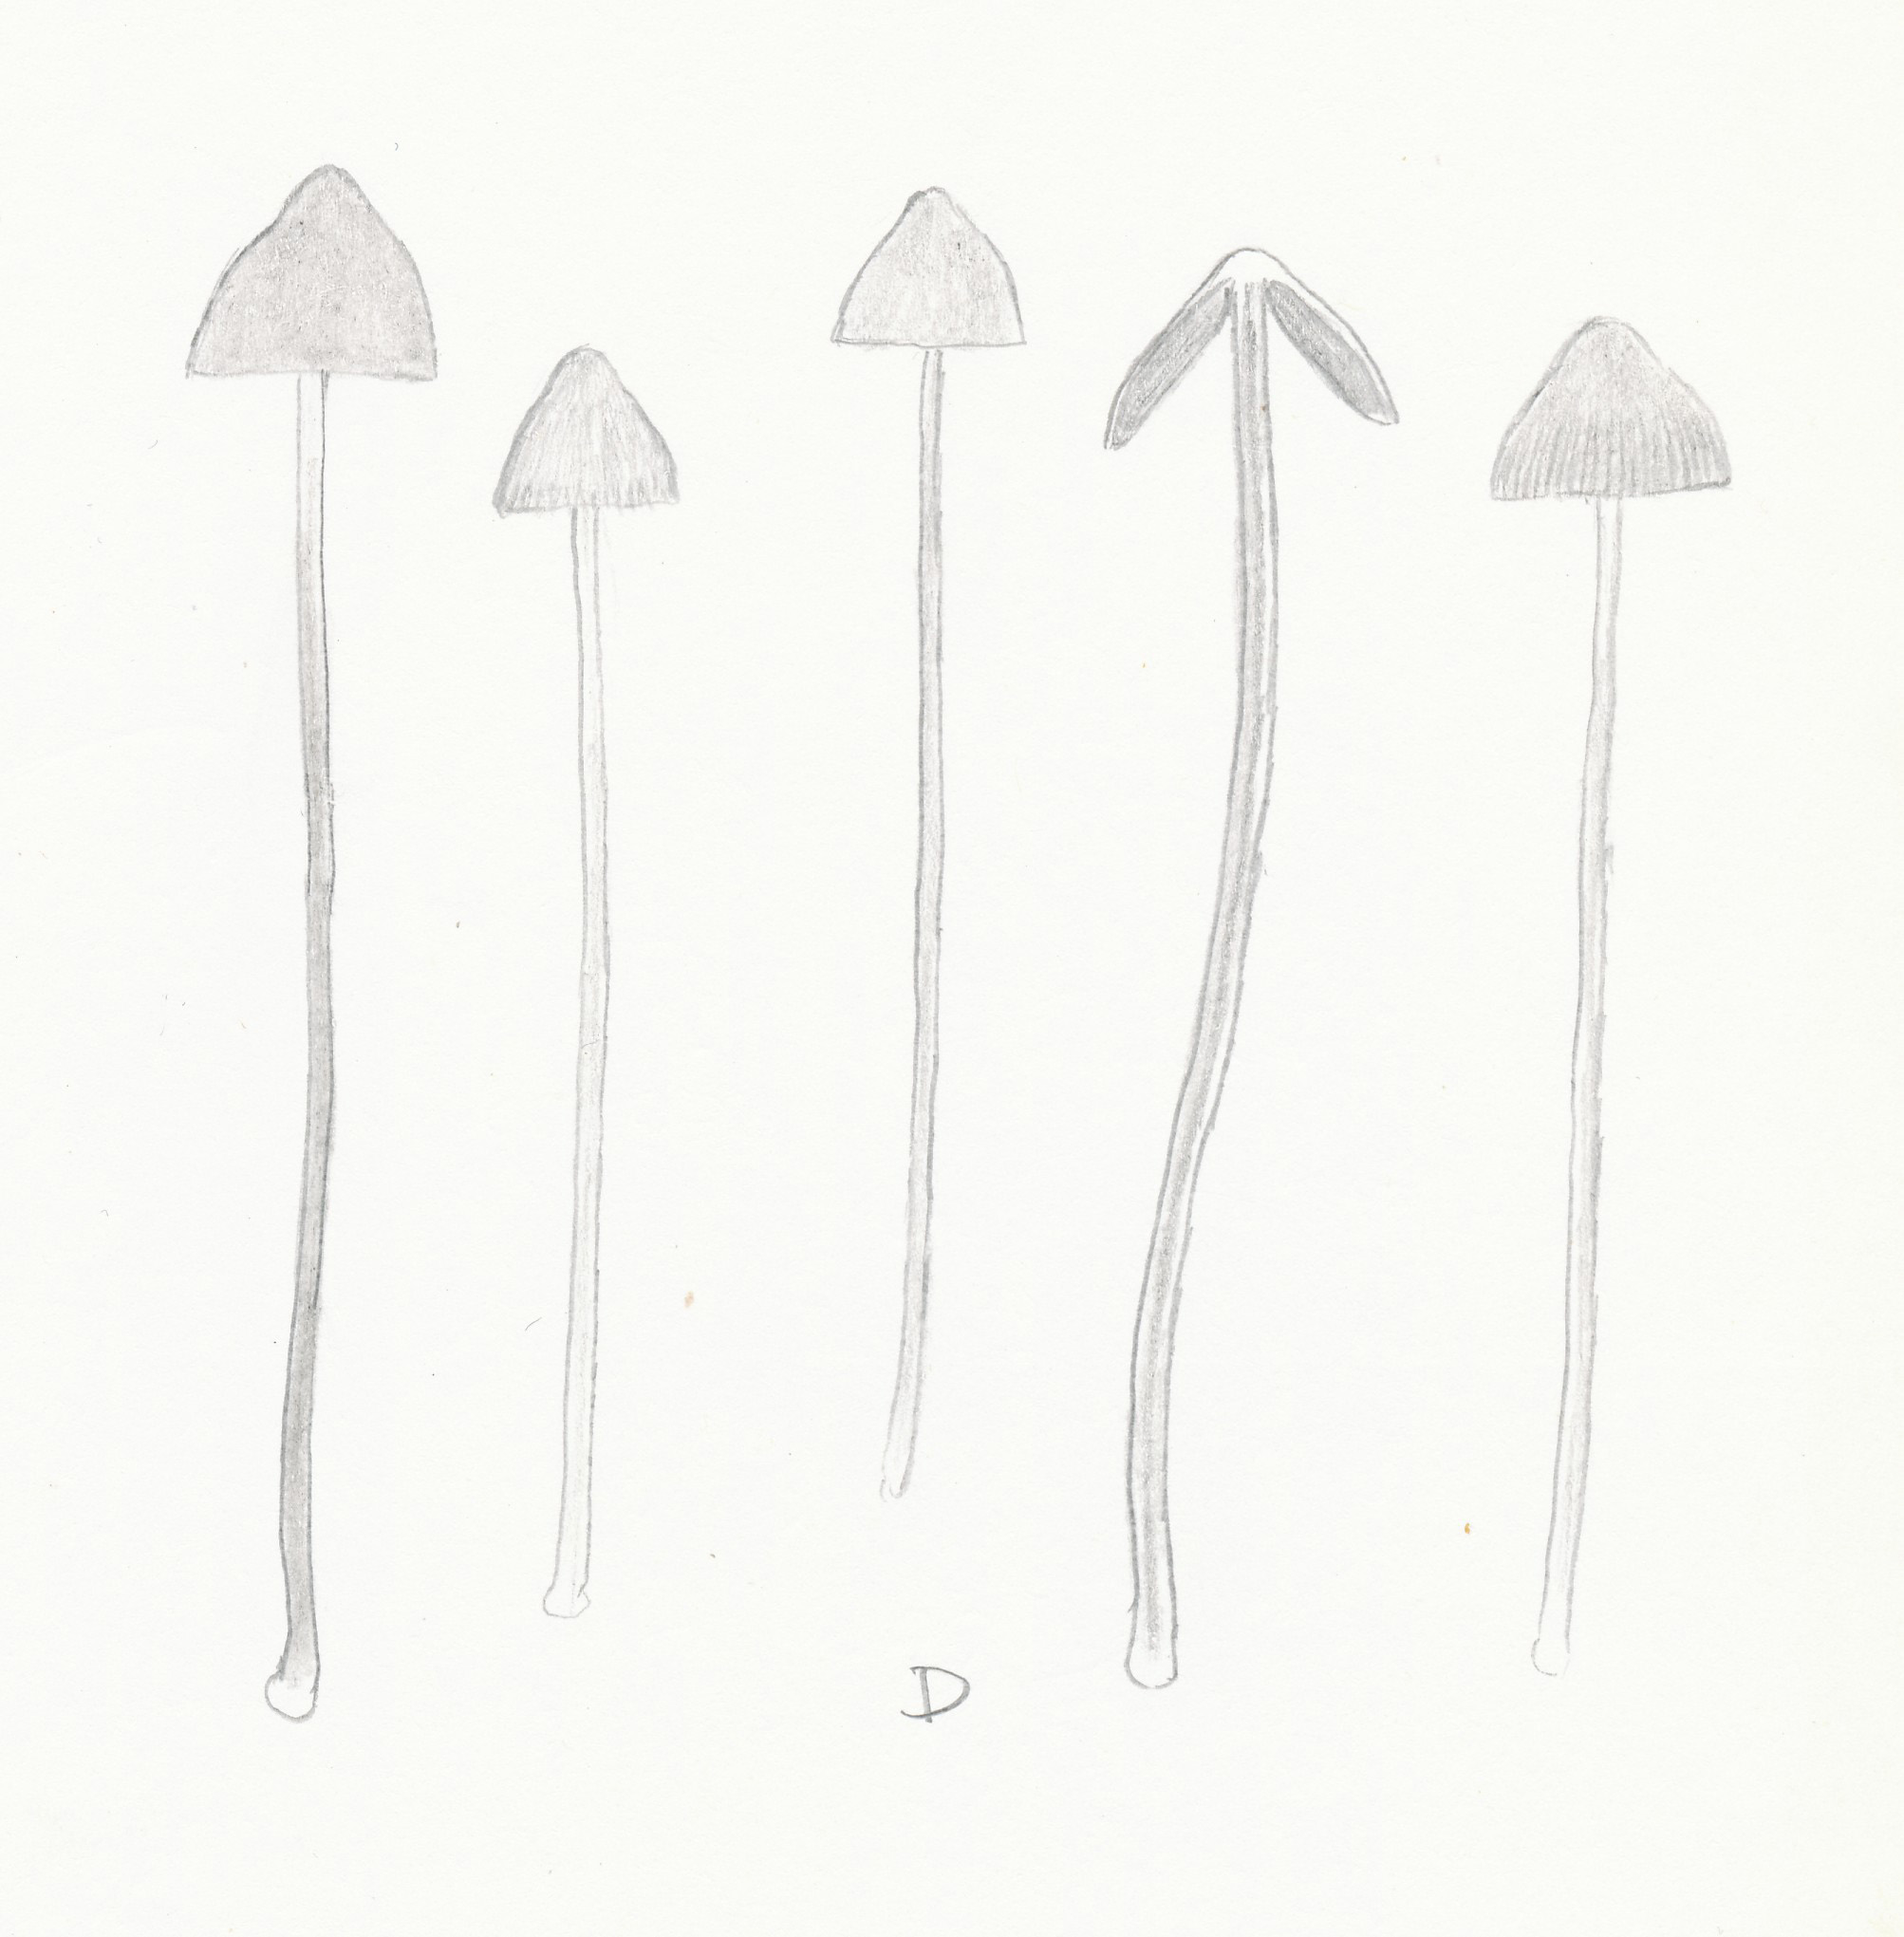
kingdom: Fungi
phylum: Basidiomycota
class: Agaricomycetes
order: Agaricales
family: Bolbitiaceae
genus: Conocybe
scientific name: Conocybe semiglobata
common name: halvkugleformet keglehat
